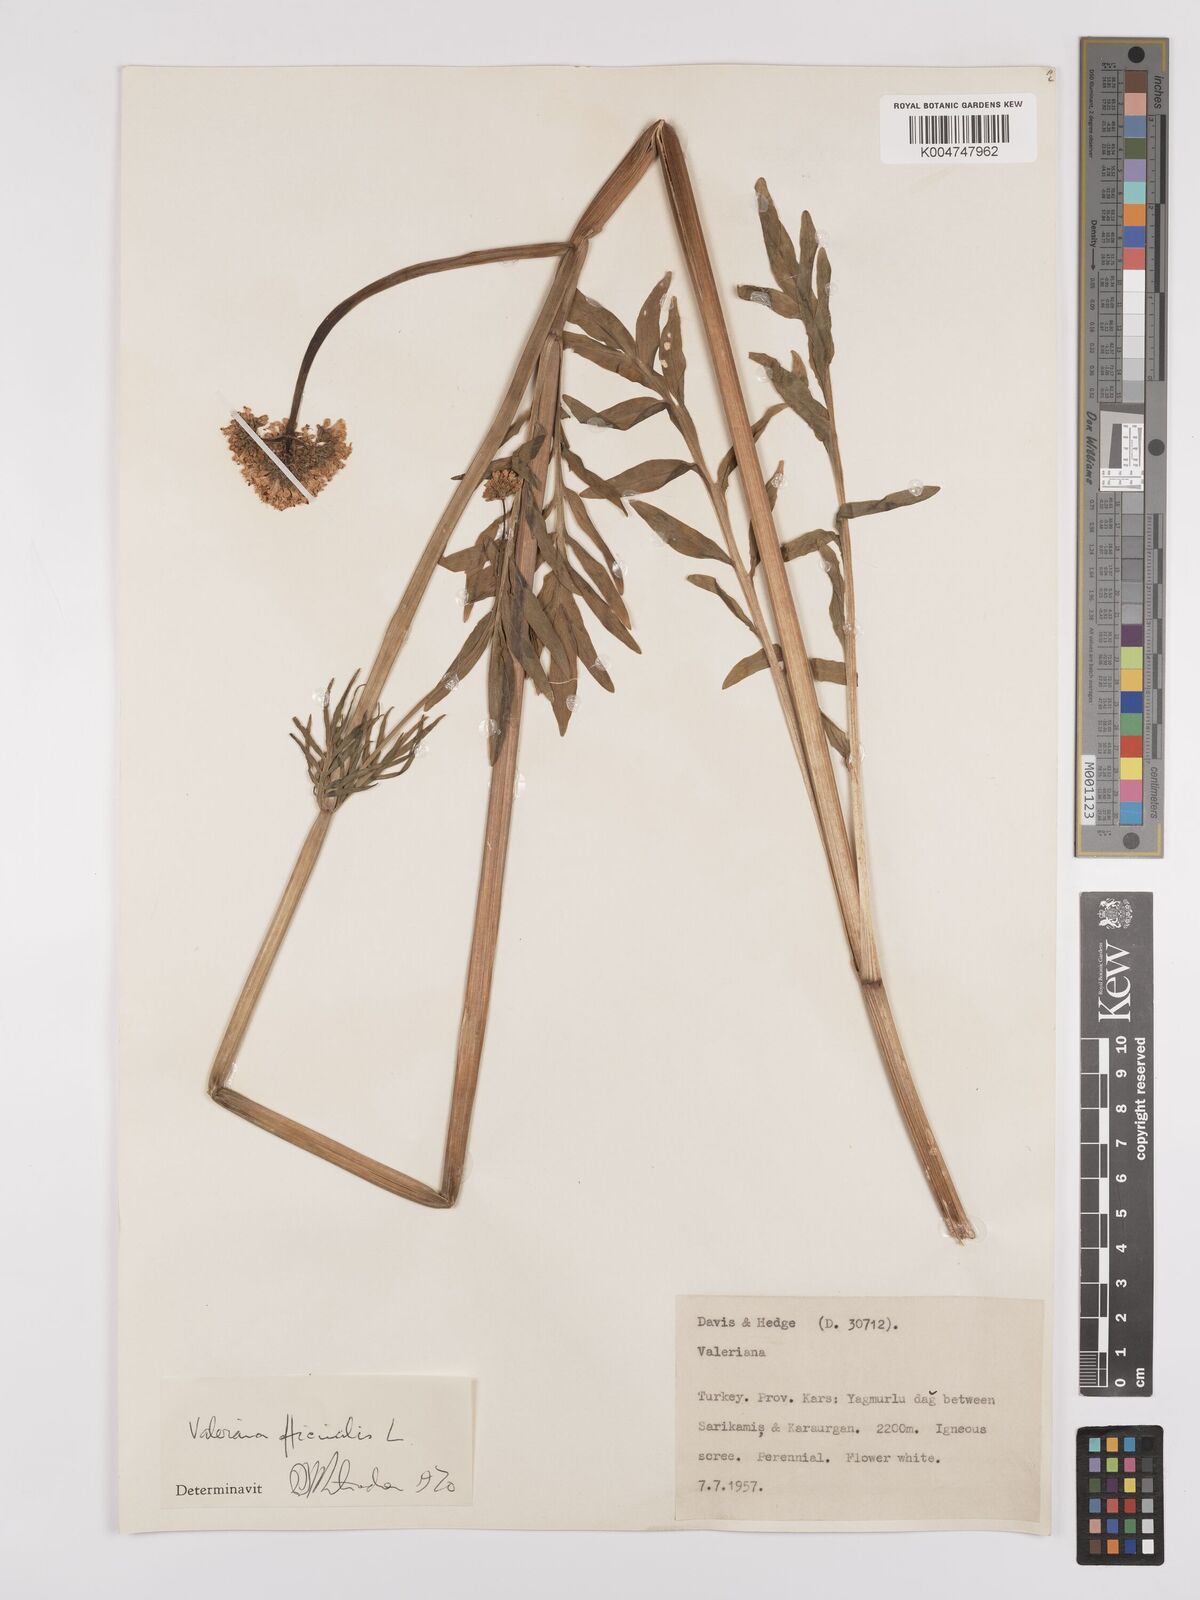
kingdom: Plantae
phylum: Tracheophyta
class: Magnoliopsida
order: Dipsacales
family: Caprifoliaceae
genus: Valeriana
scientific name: Valeriana officinalis
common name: Common valerian
